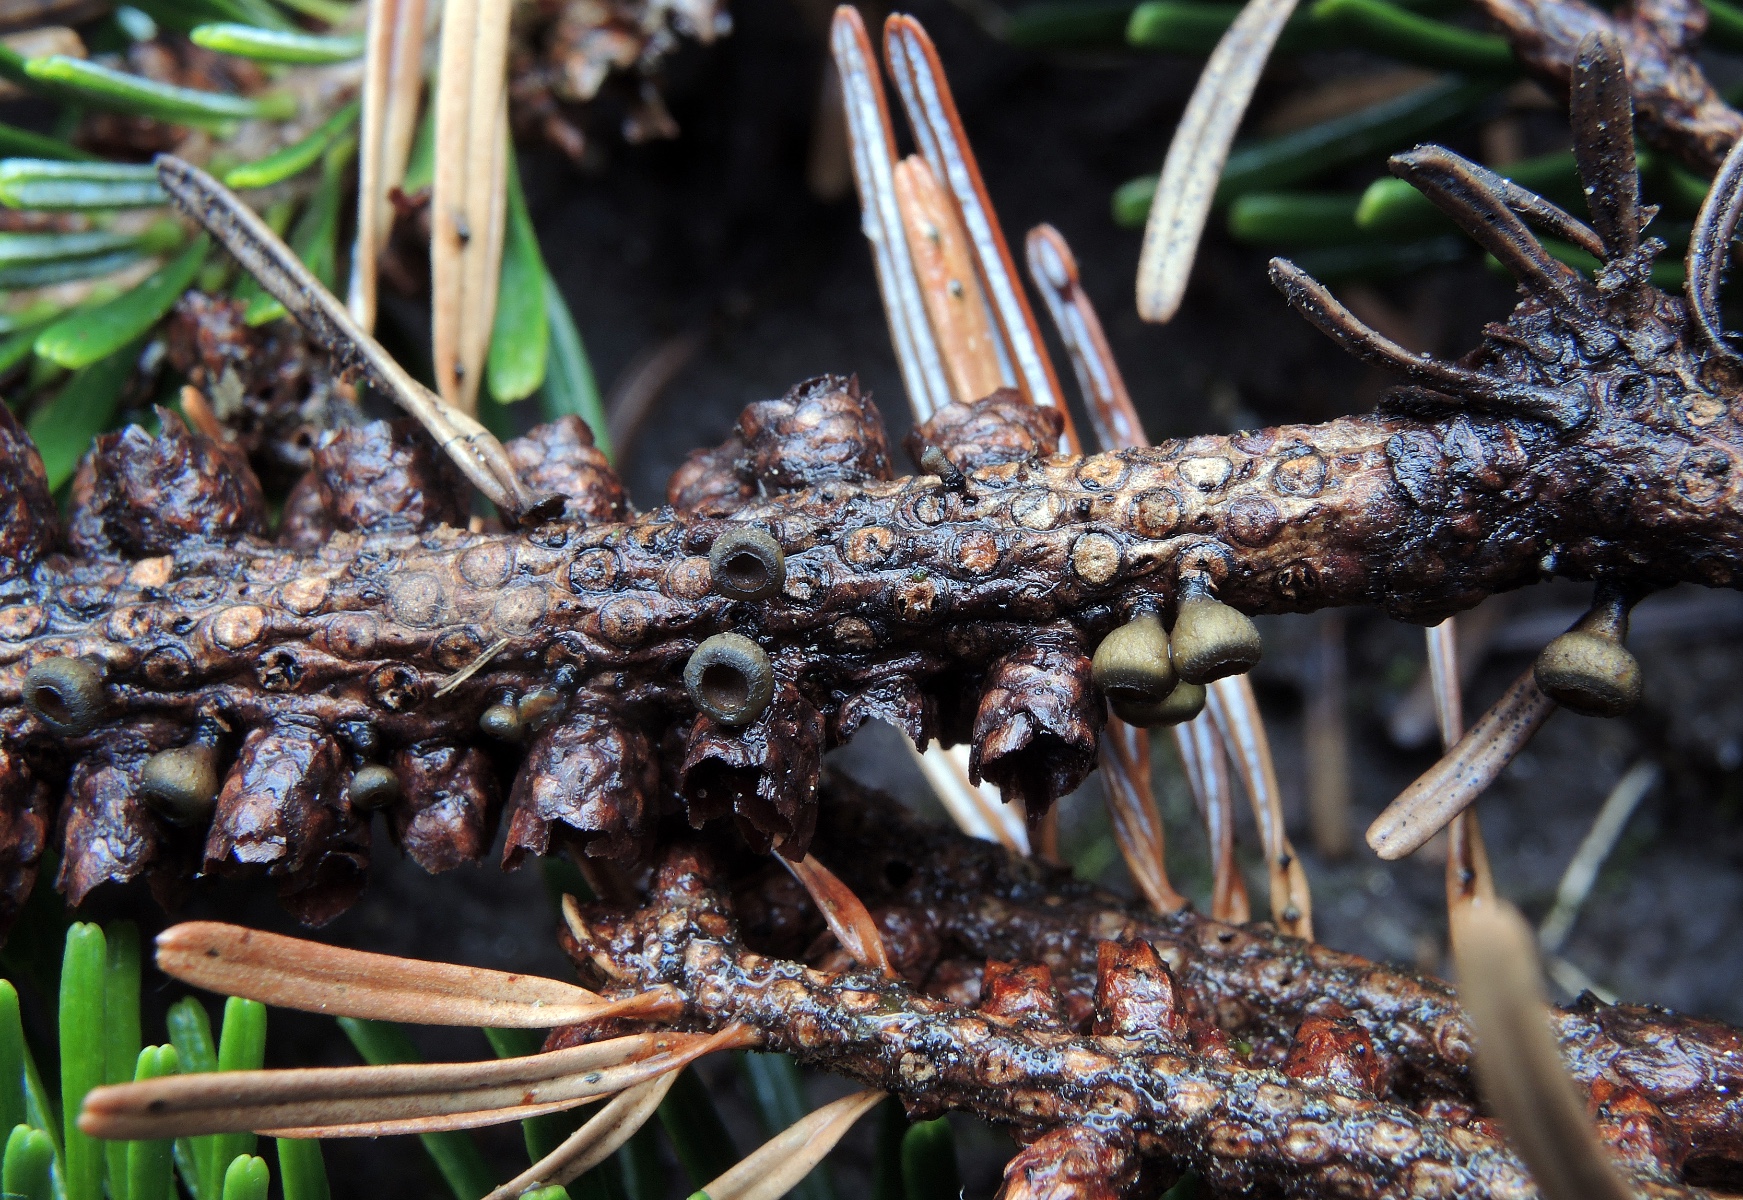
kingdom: Fungi
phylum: Ascomycota
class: Leotiomycetes
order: Helotiales
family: Rutstroemiaceae
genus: Rutstroemia
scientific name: Rutstroemia elatina
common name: ædelgran-brunskive
